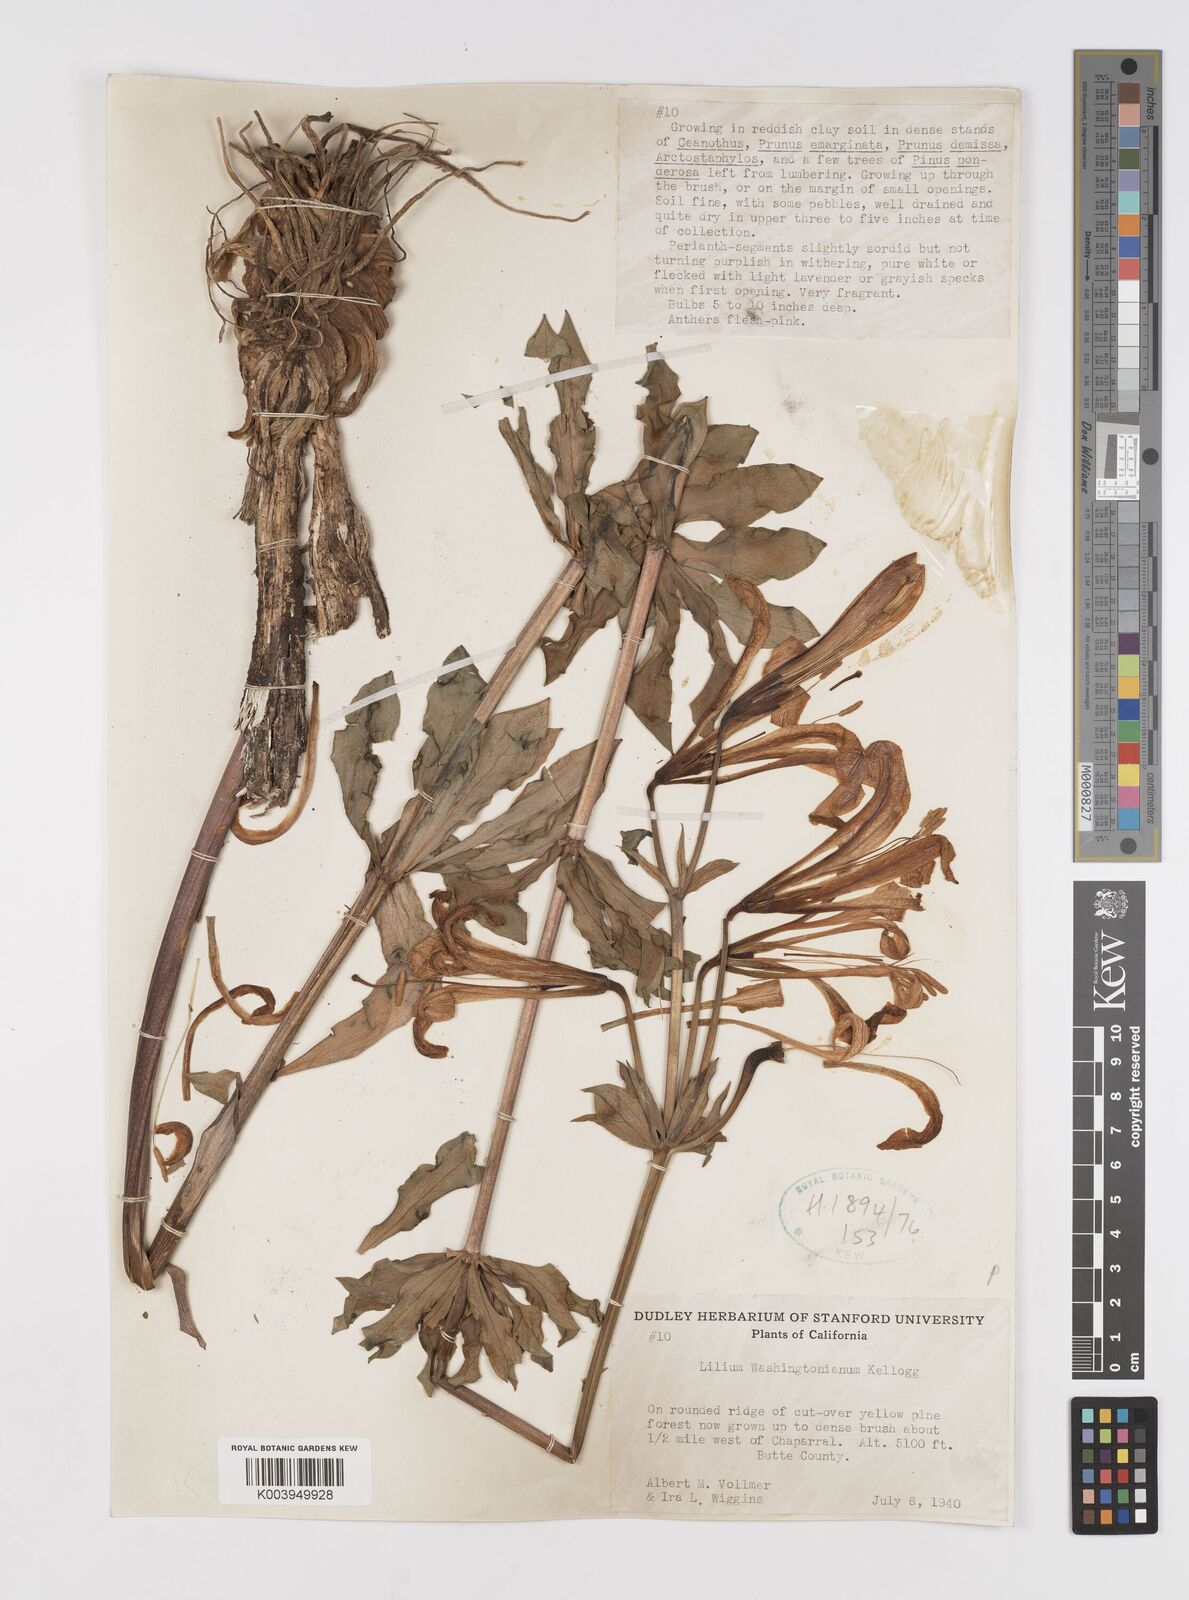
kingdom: Plantae
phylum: Tracheophyta
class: Liliopsida
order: Liliales
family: Liliaceae
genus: Lilium
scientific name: Lilium washingtonianum
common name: Washington lily
